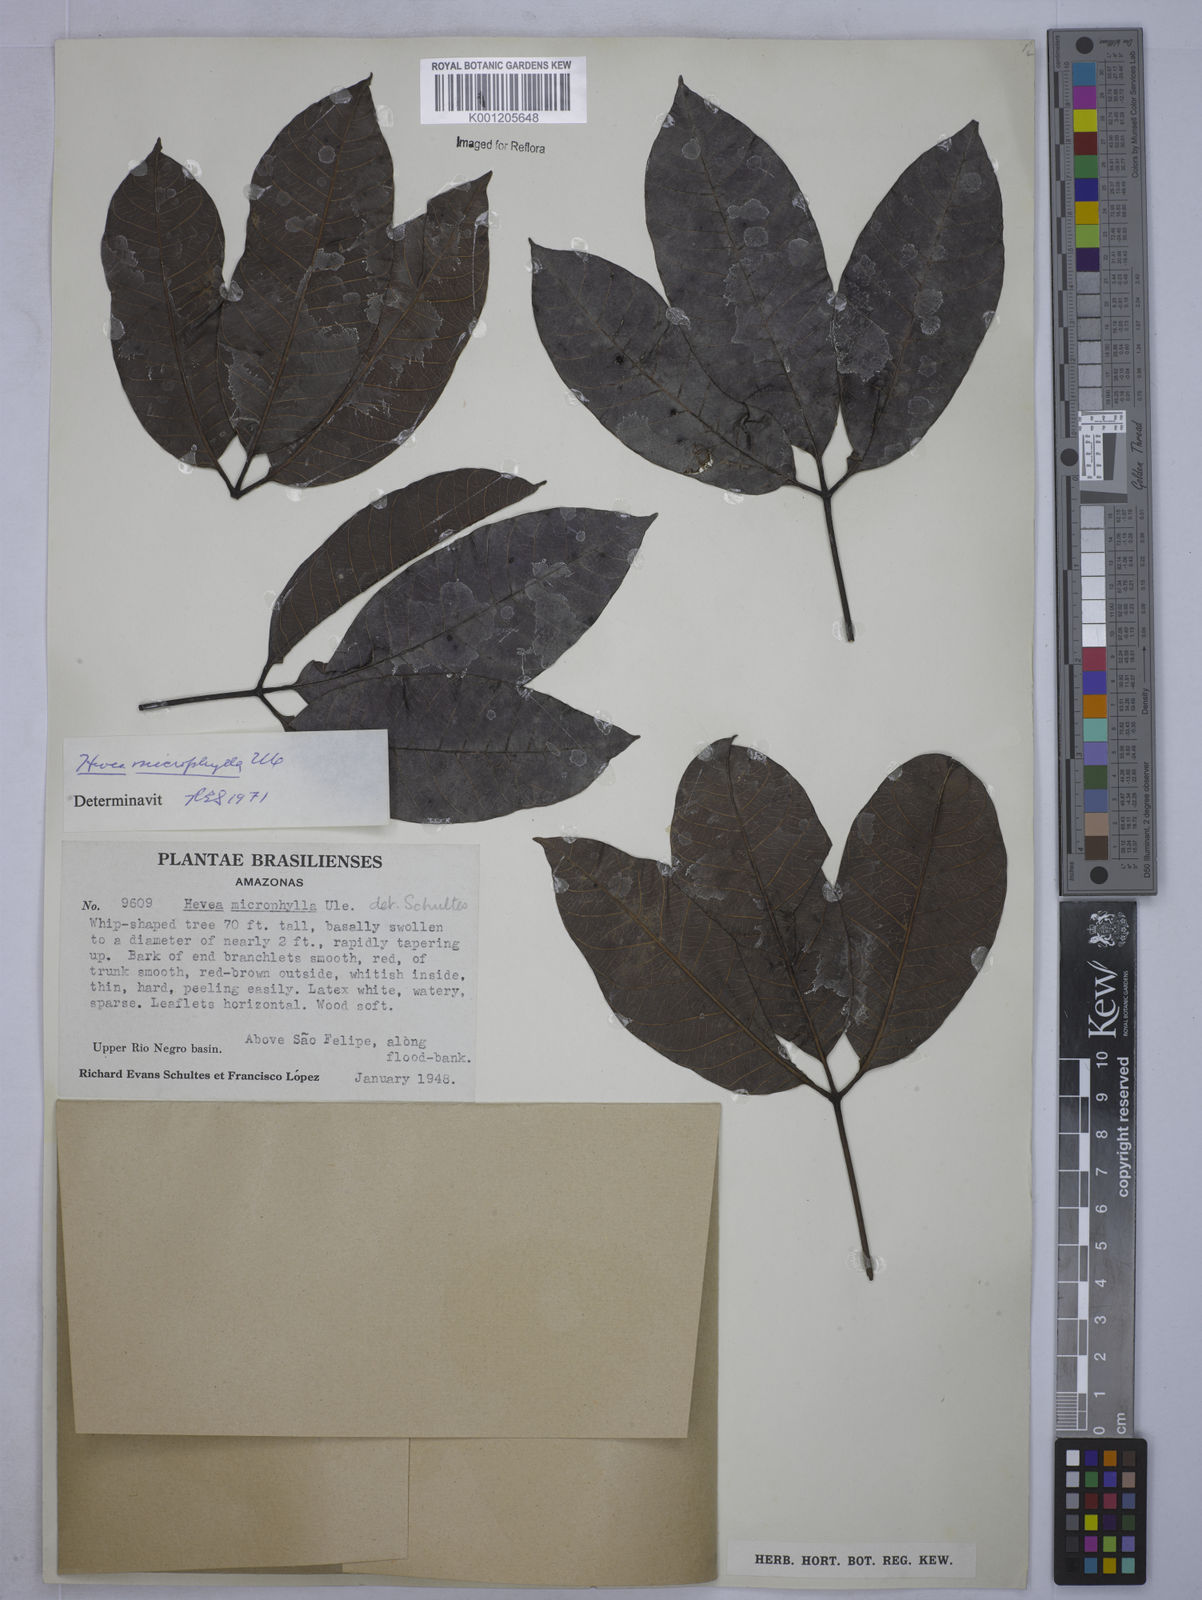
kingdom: Plantae
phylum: Tracheophyta
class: Magnoliopsida
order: Malpighiales
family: Euphorbiaceae
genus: Hevea
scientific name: Hevea microphylla
